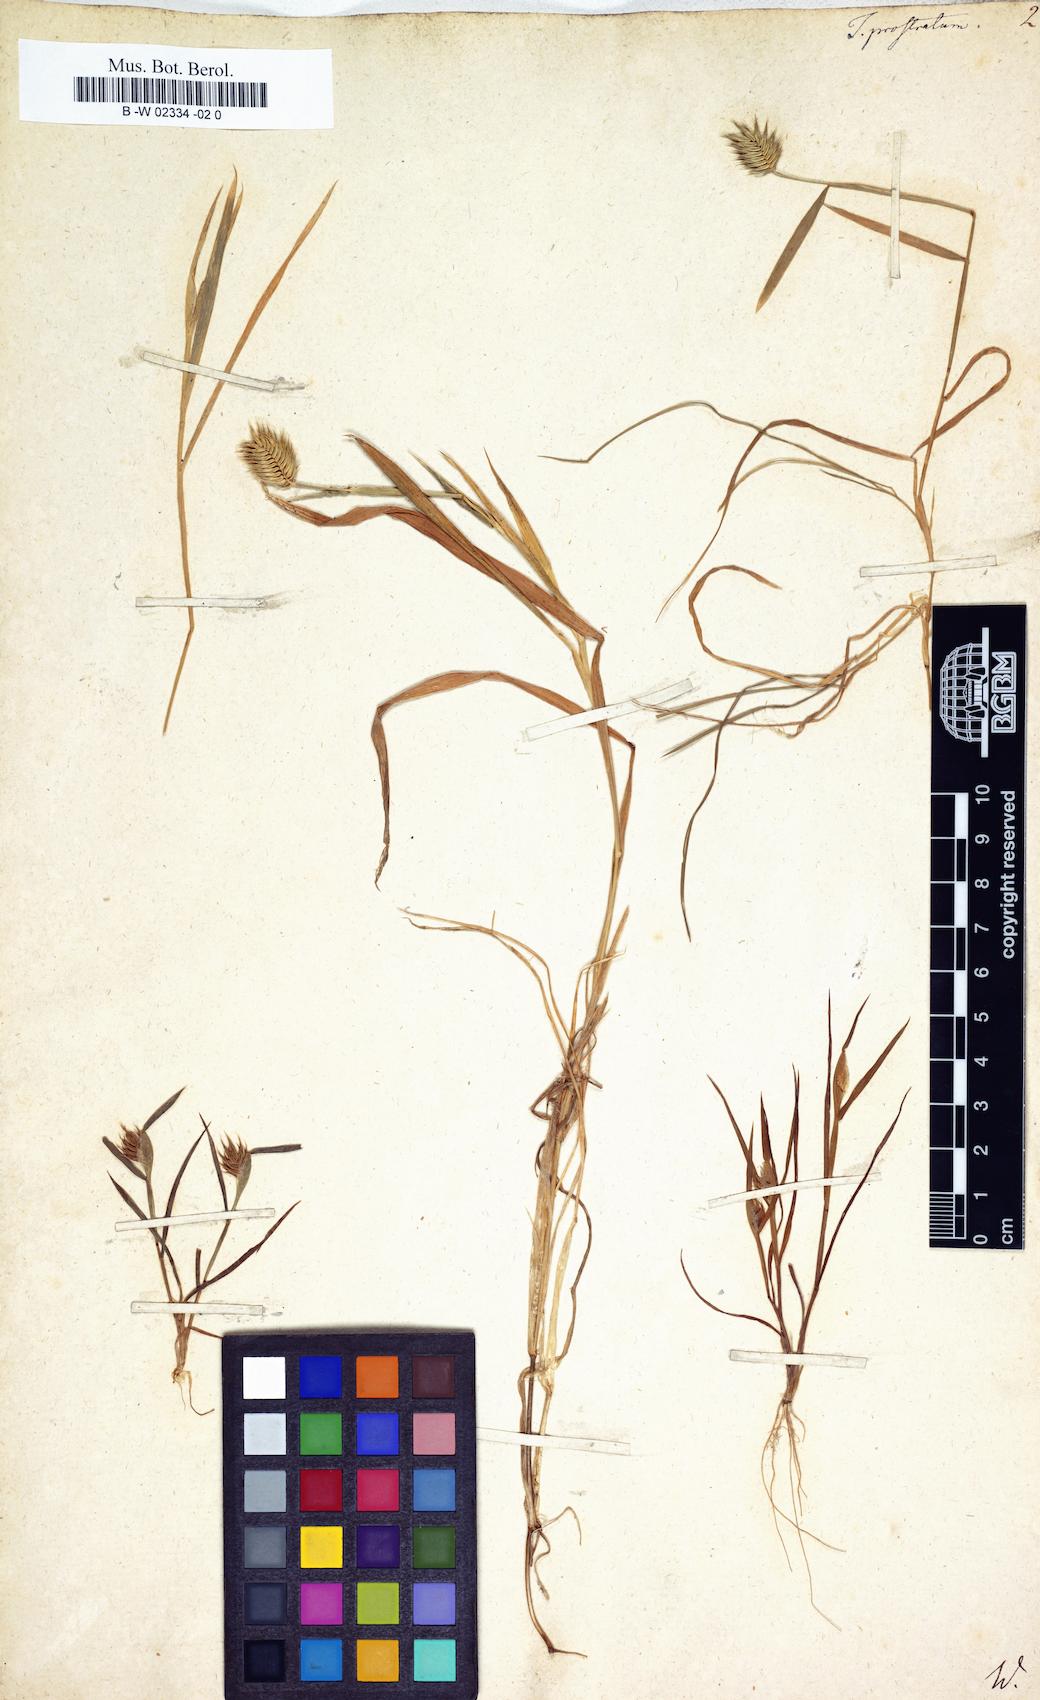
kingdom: Plantae
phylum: Tracheophyta
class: Liliopsida
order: Poales
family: Poaceae
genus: Eremopyrum
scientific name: Eremopyrum
